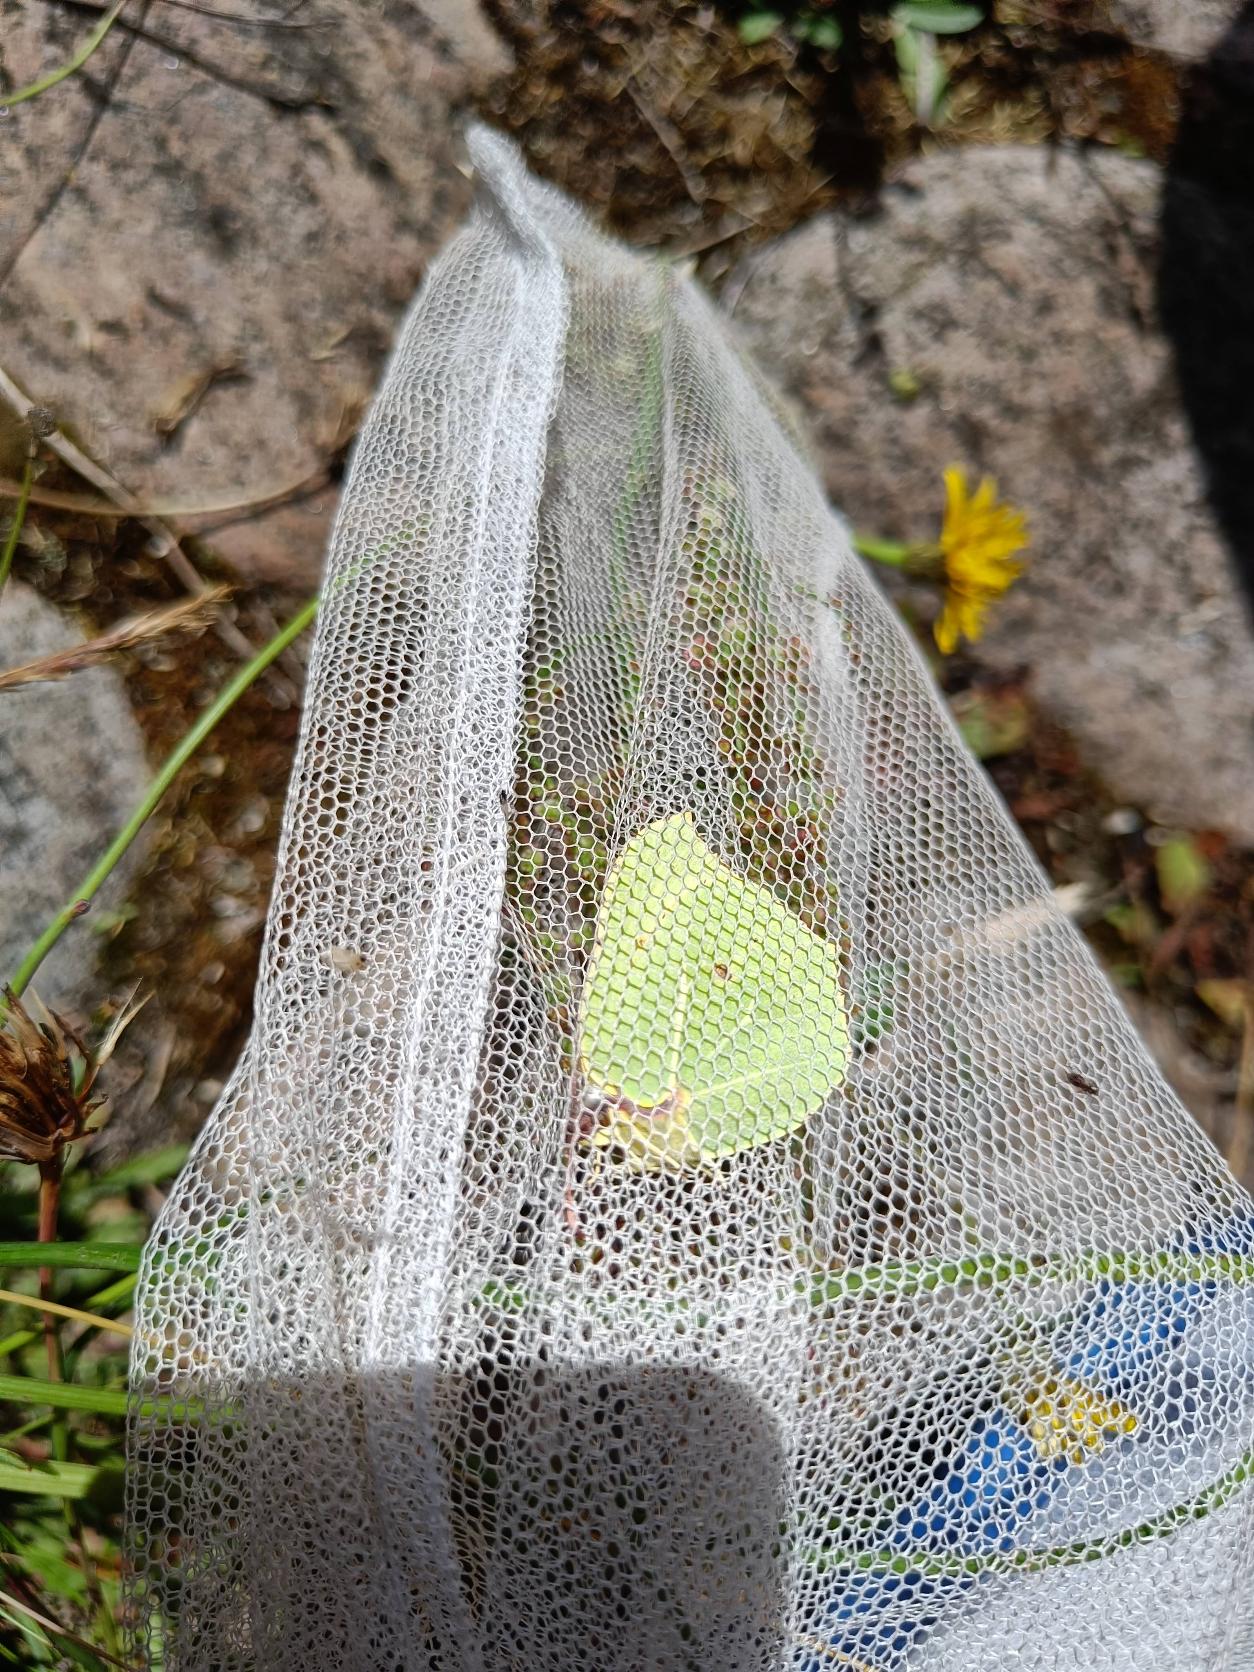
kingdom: Animalia
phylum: Arthropoda
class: Insecta
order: Lepidoptera
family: Pieridae
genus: Gonepteryx
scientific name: Gonepteryx rhamni
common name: Citronsommerfugl
